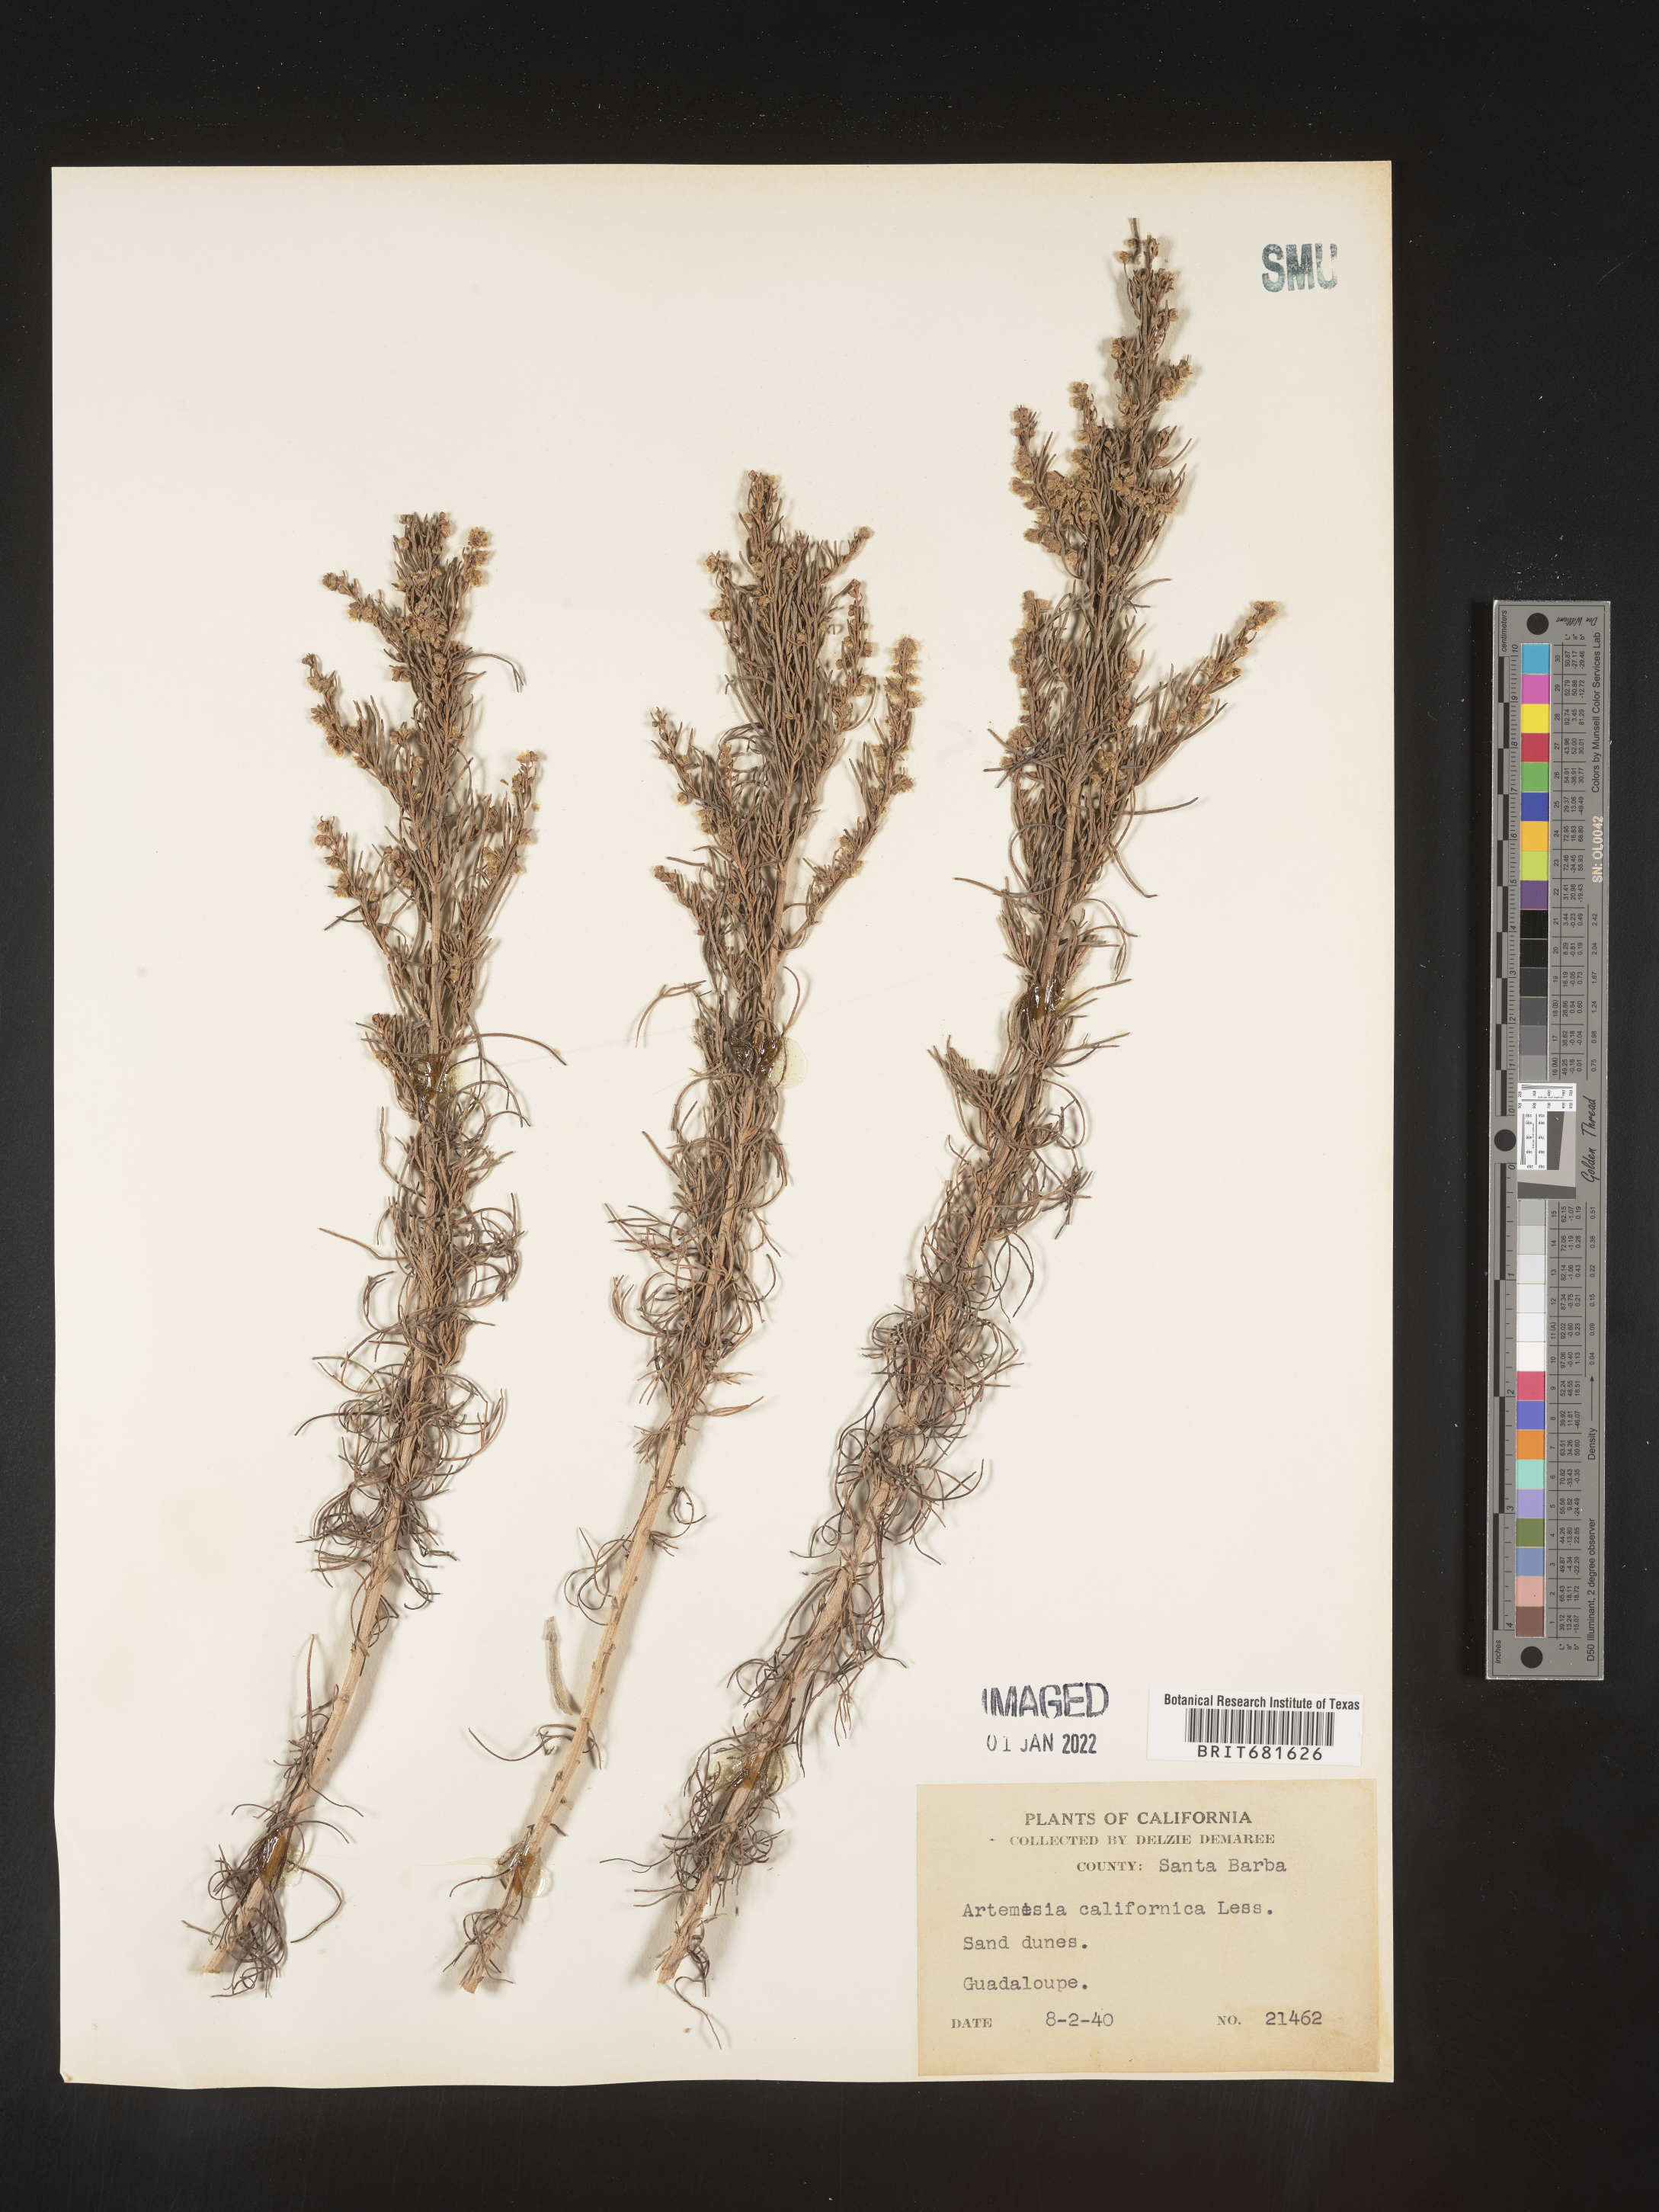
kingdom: Plantae
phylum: Tracheophyta
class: Magnoliopsida
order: Asterales
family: Asteraceae
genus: Artemisia
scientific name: Artemisia californica
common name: California sagebrush
